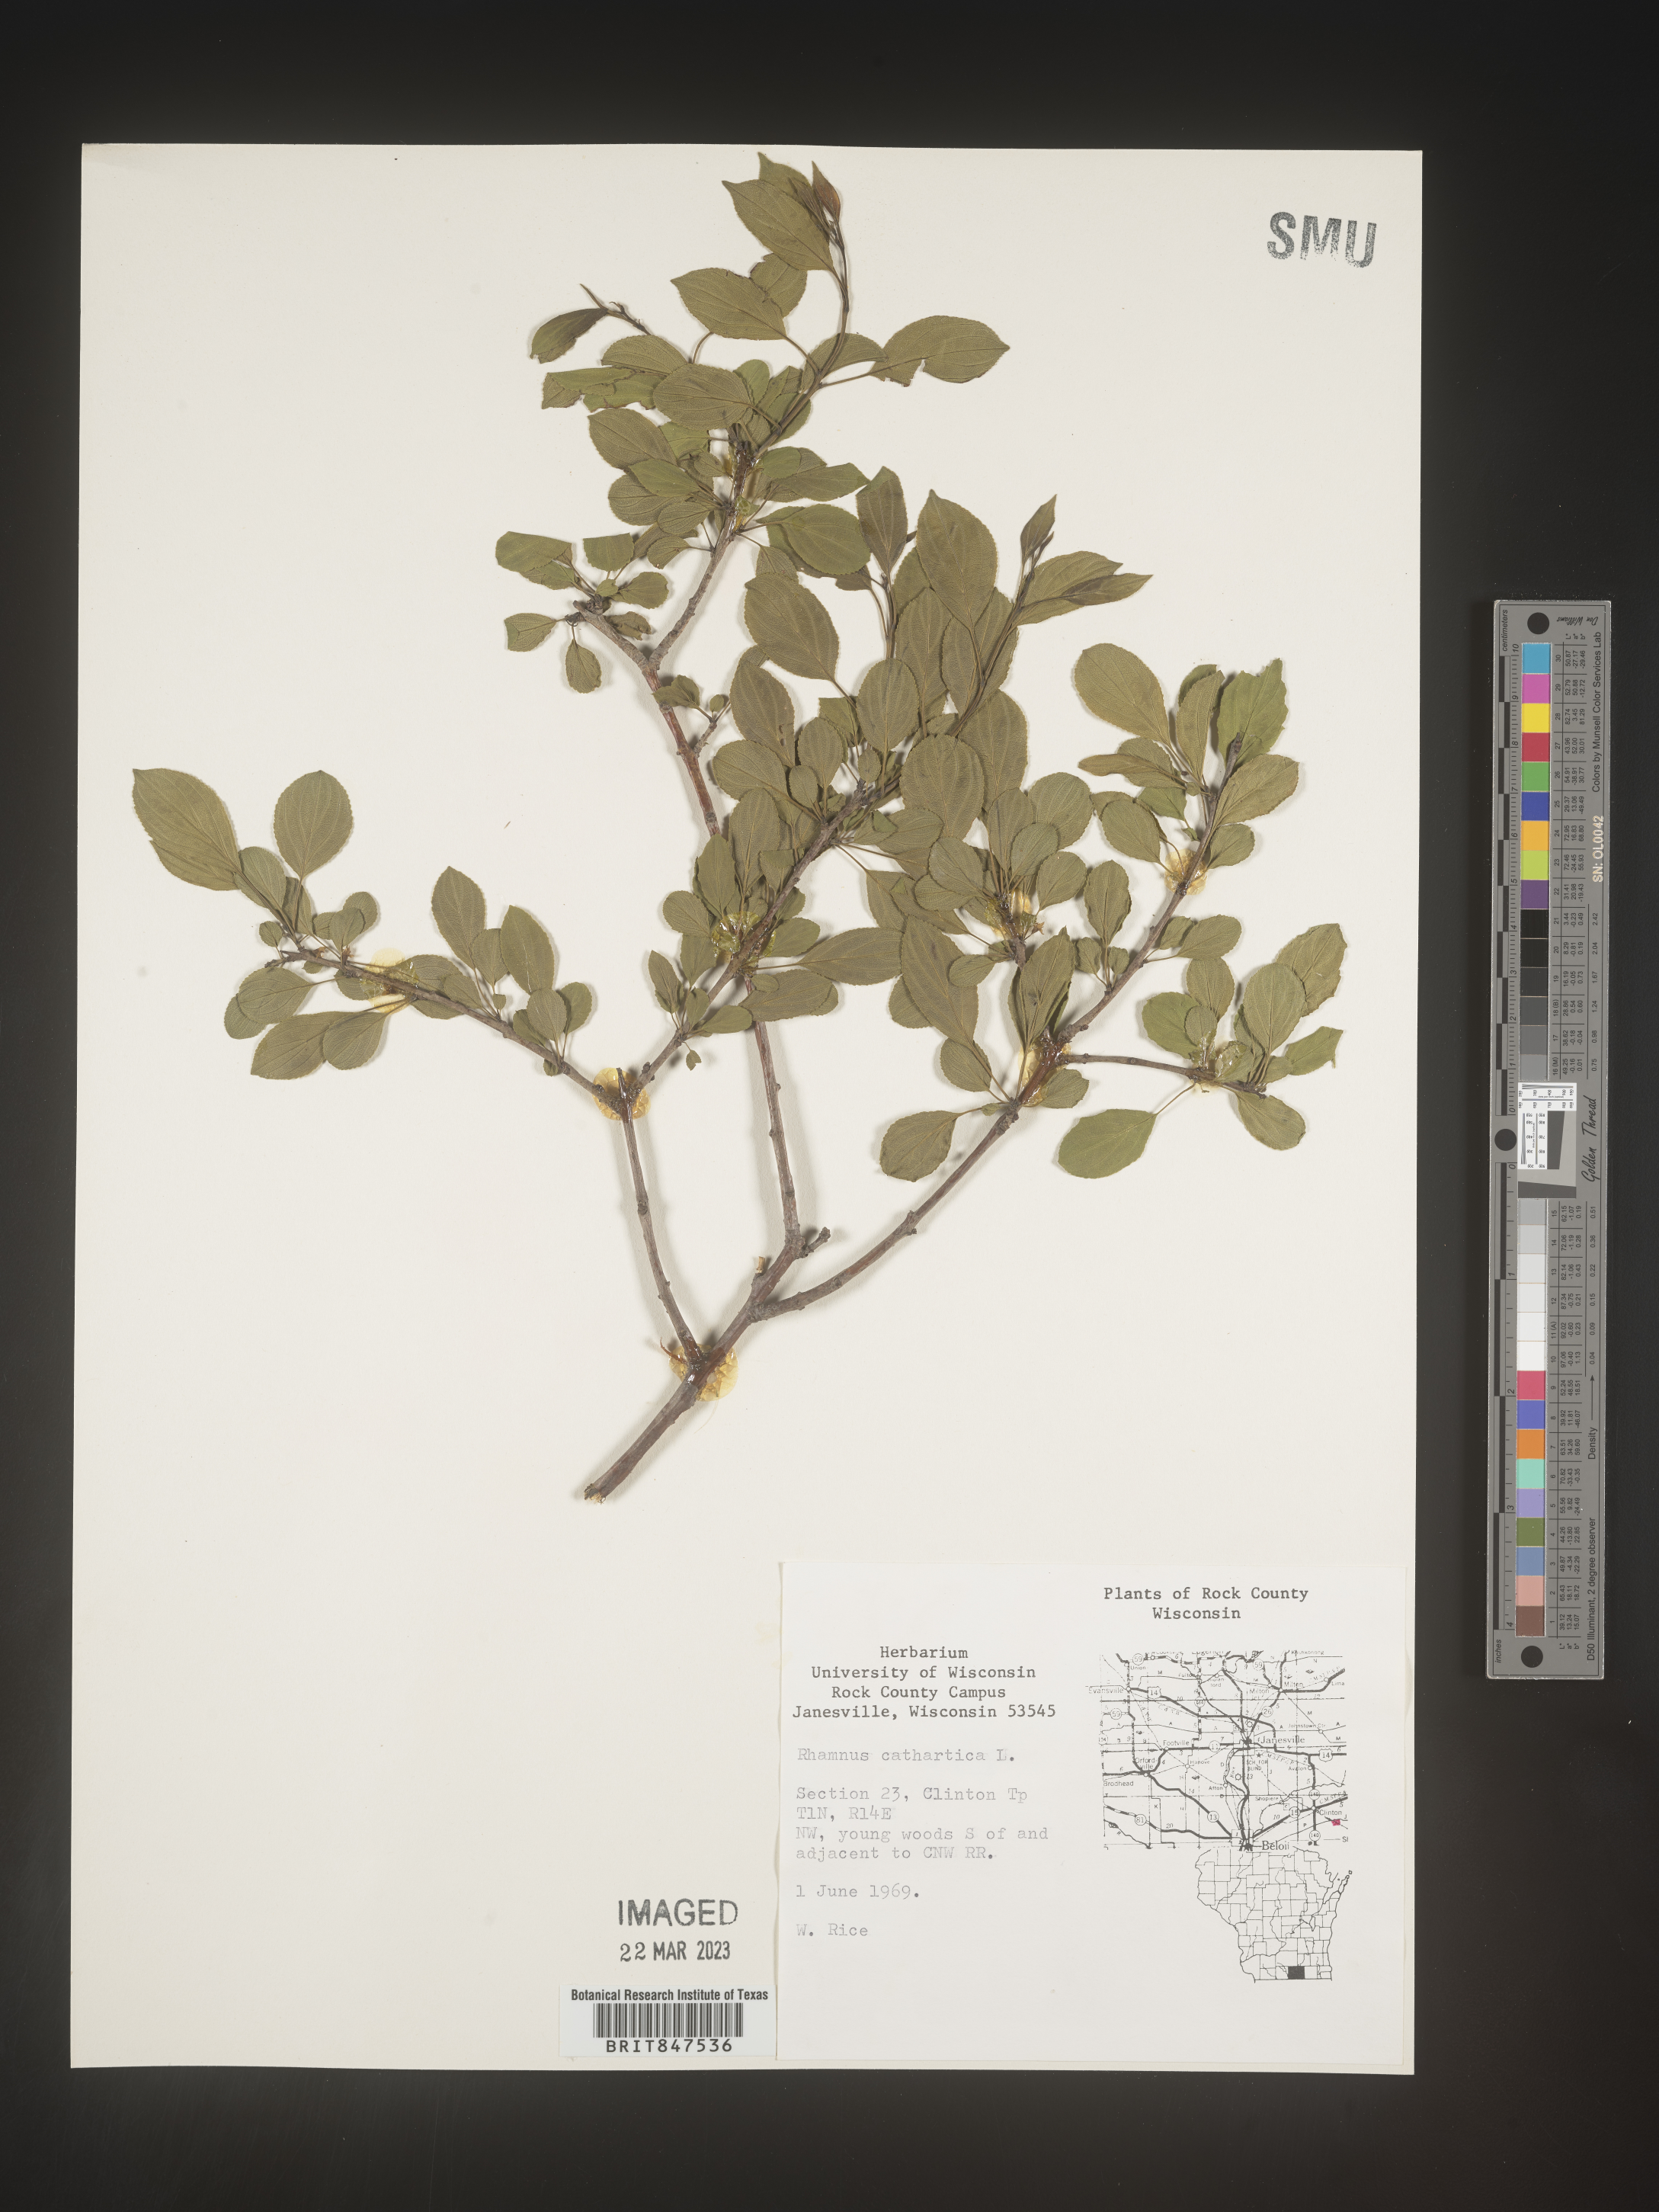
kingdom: Plantae
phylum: Tracheophyta
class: Magnoliopsida
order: Rosales
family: Rhamnaceae
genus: Rhamnus
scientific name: Rhamnus cathartica
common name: Common buckthorn
